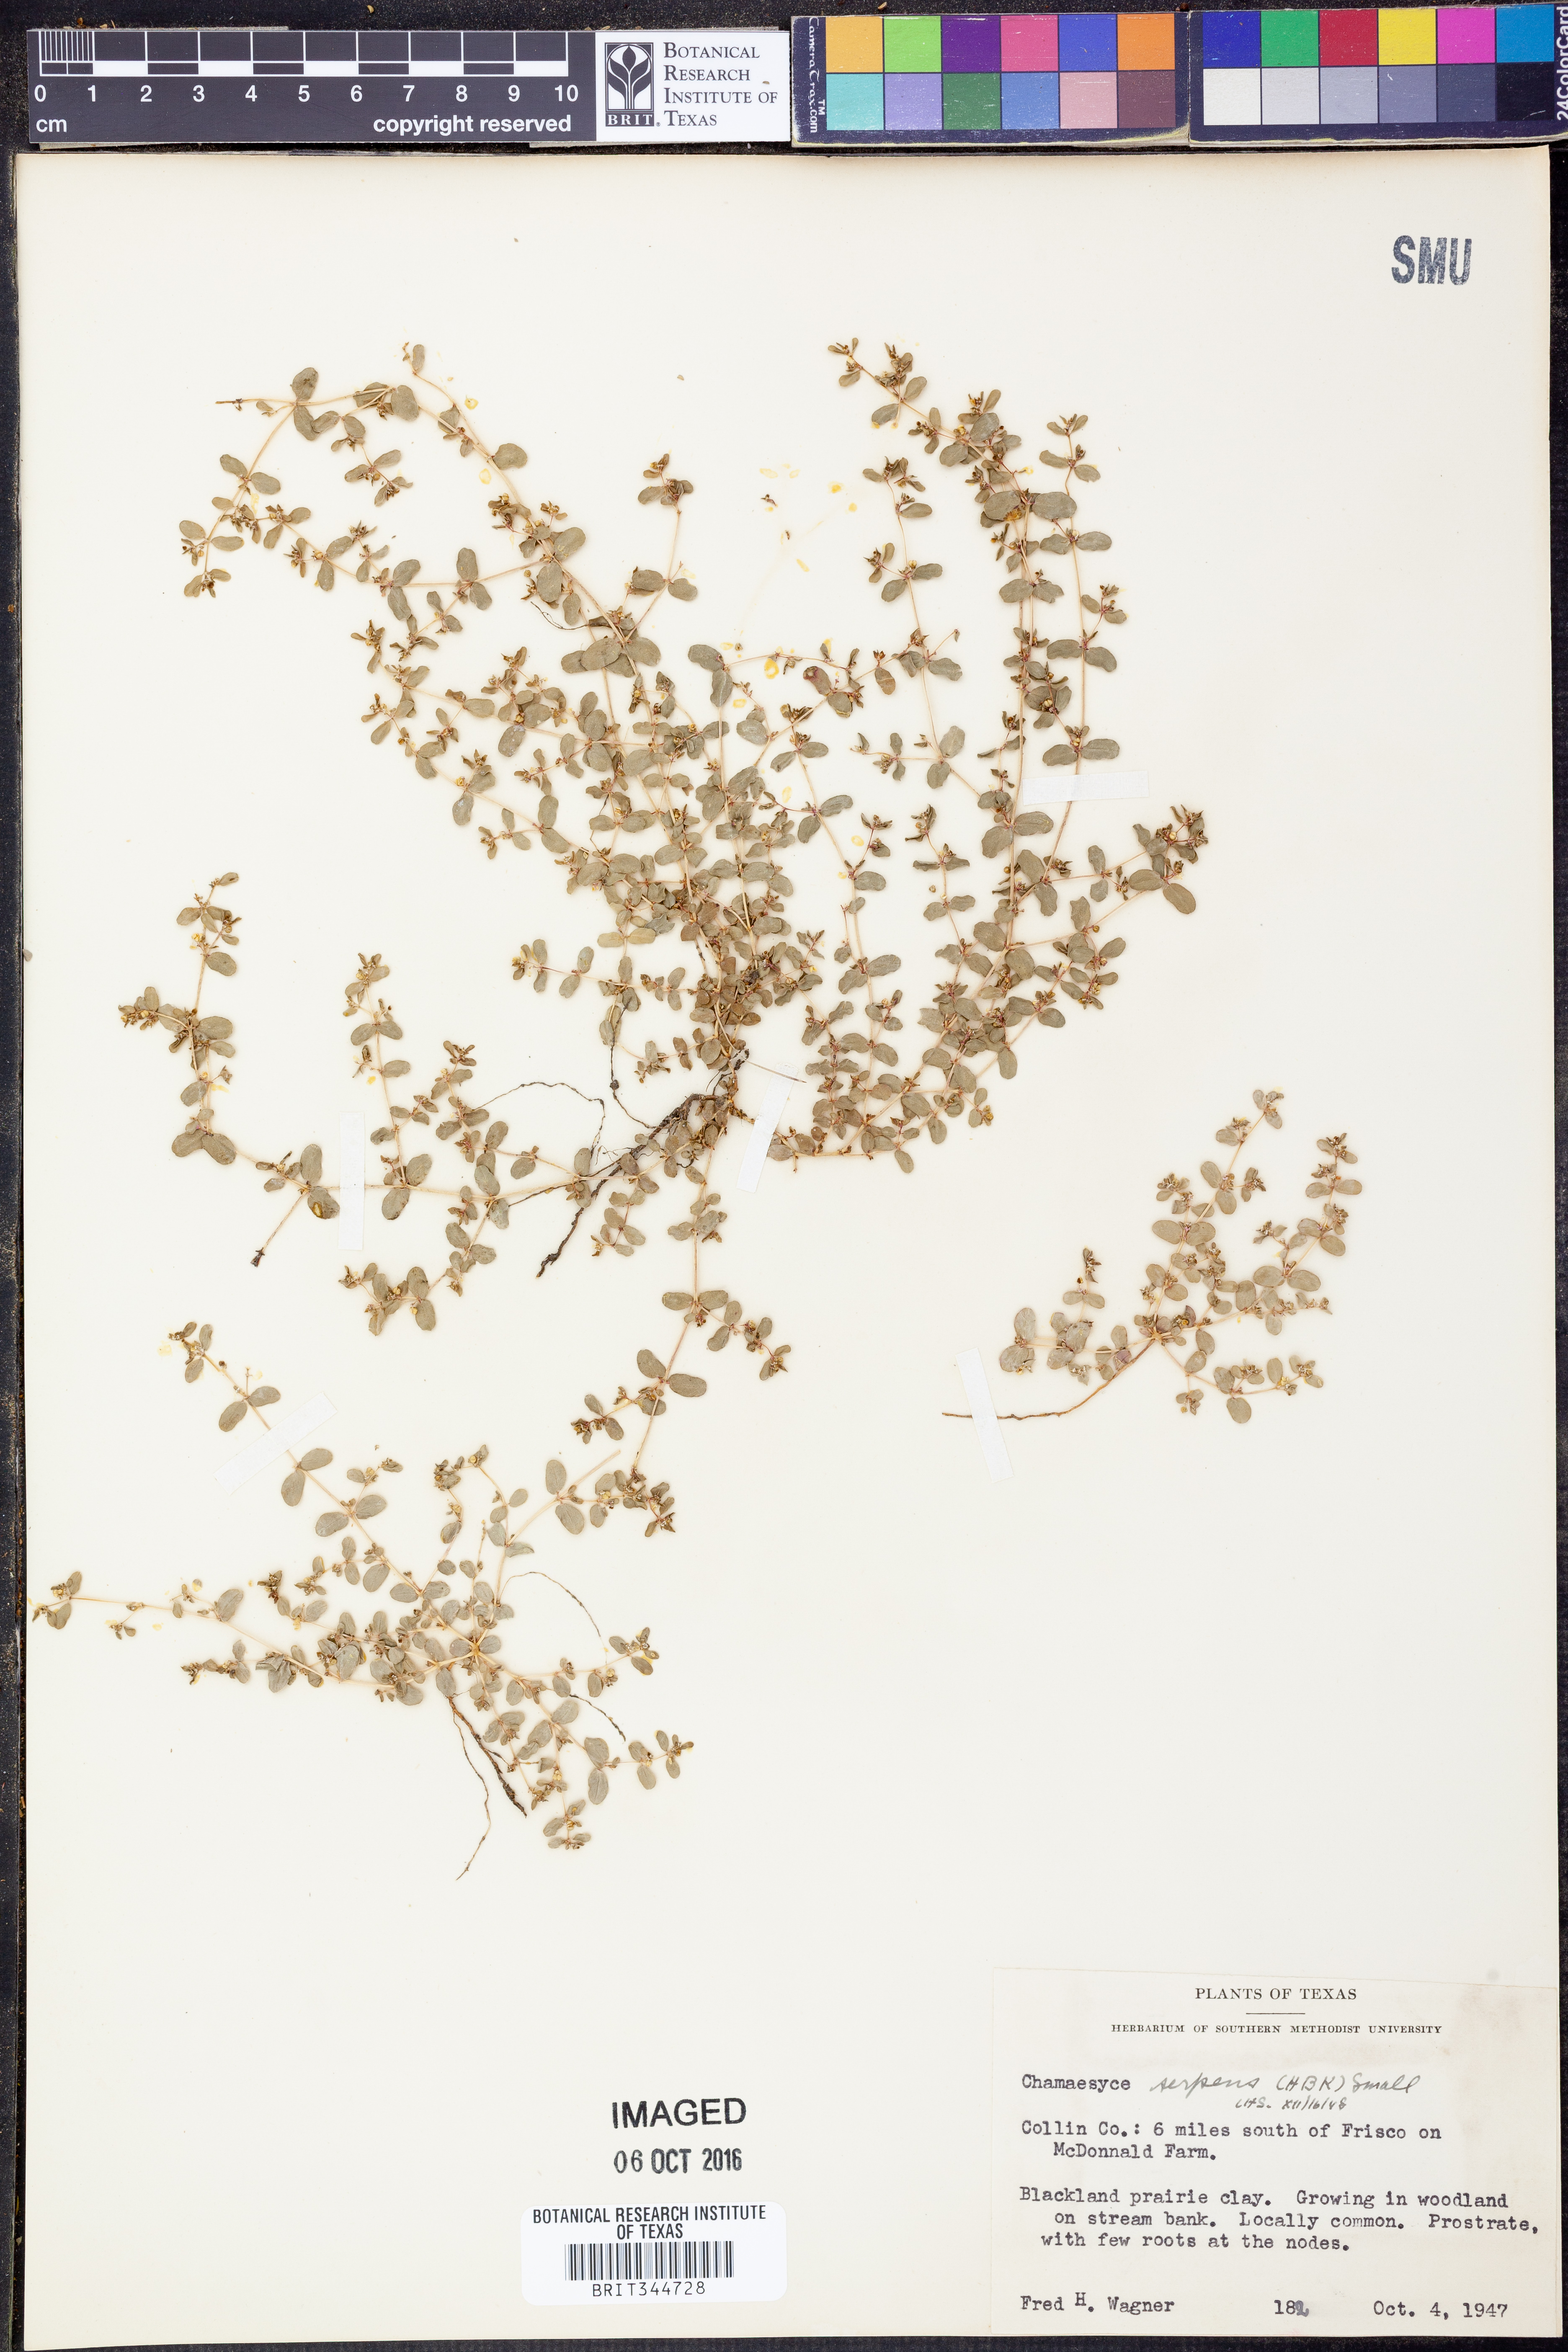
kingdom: Plantae
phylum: Tracheophyta
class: Magnoliopsida
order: Malpighiales
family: Euphorbiaceae
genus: Euphorbia
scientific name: Euphorbia serpens
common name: Matted sandmat
